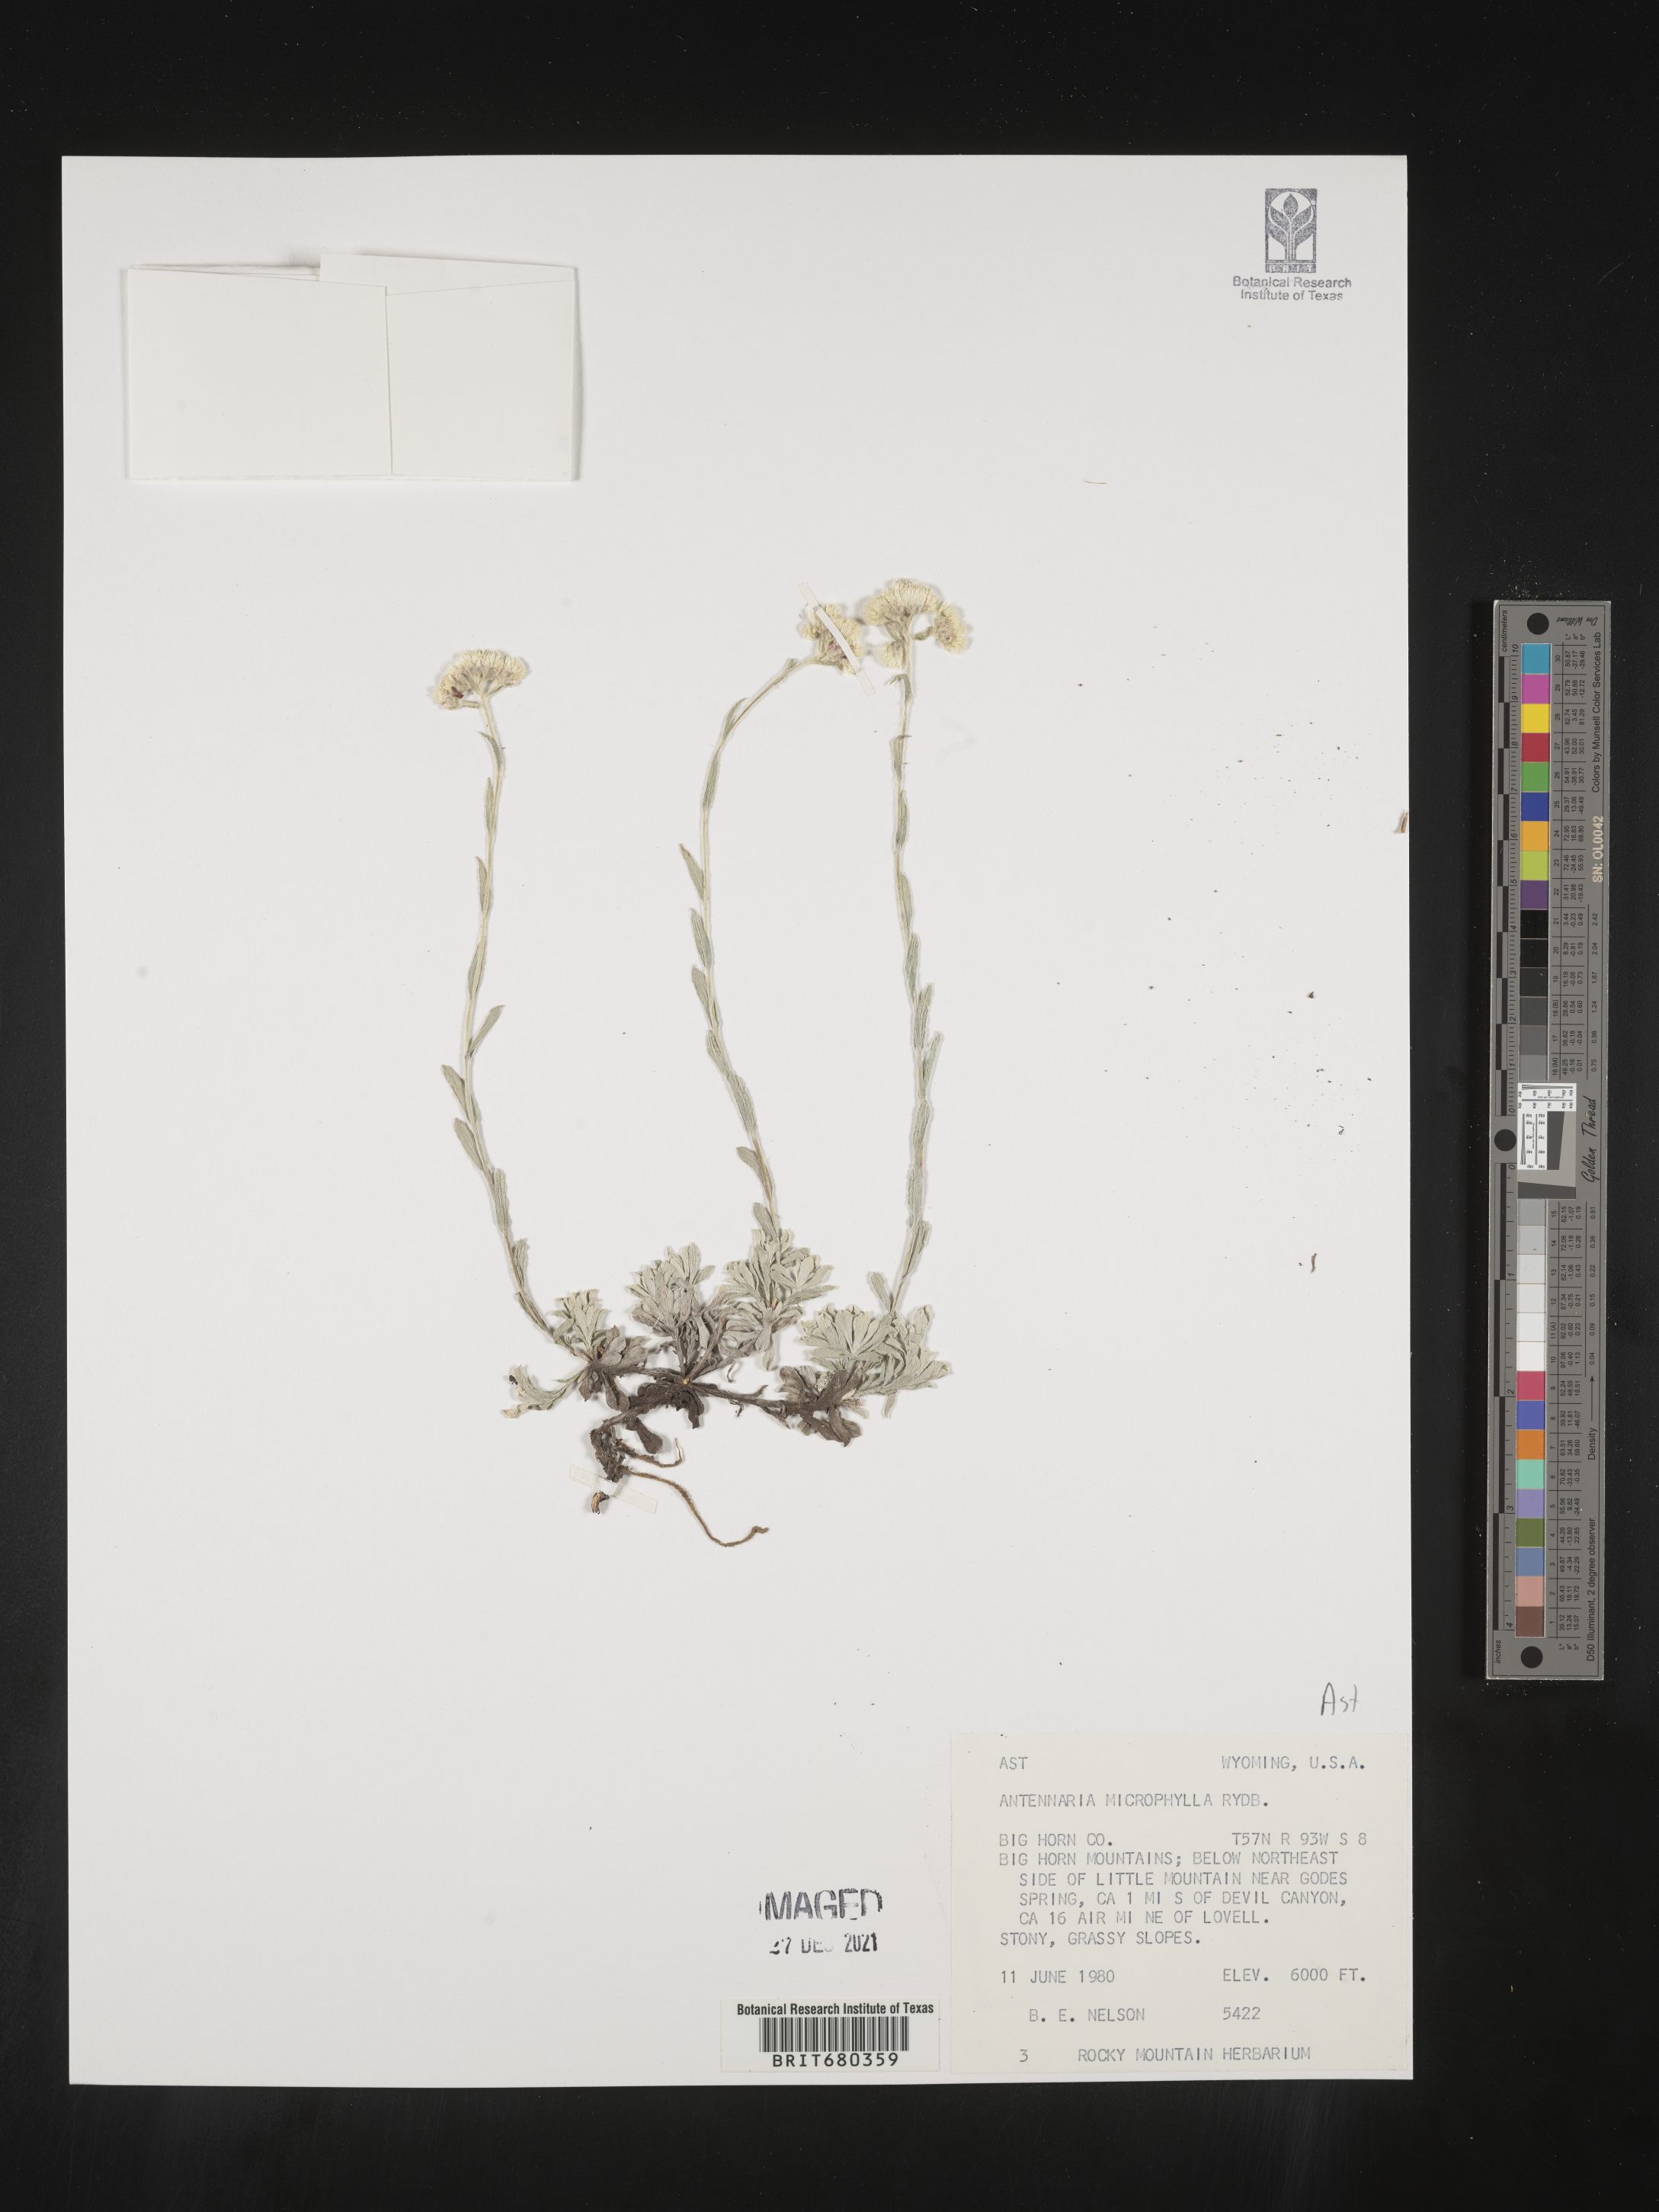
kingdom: Plantae
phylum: Tracheophyta
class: Magnoliopsida
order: Asterales
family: Asteraceae
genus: Antennaria
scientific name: Antennaria
